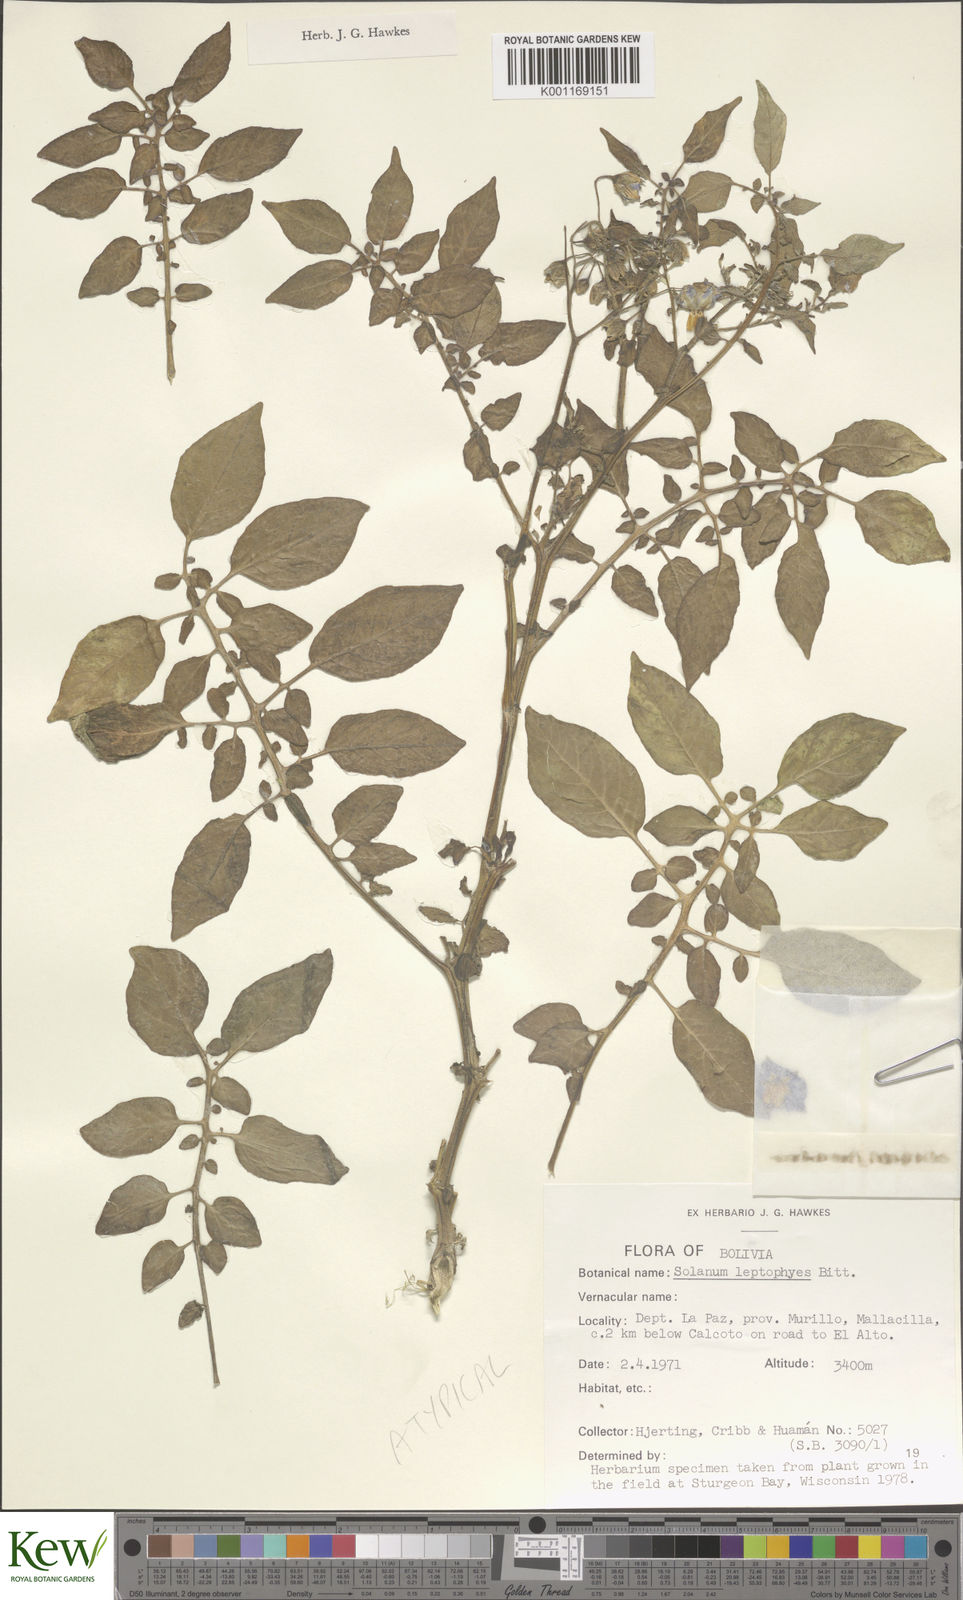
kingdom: Plantae
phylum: Tracheophyta
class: Magnoliopsida
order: Solanales
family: Solanaceae
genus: Solanum
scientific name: Solanum brevicaule
